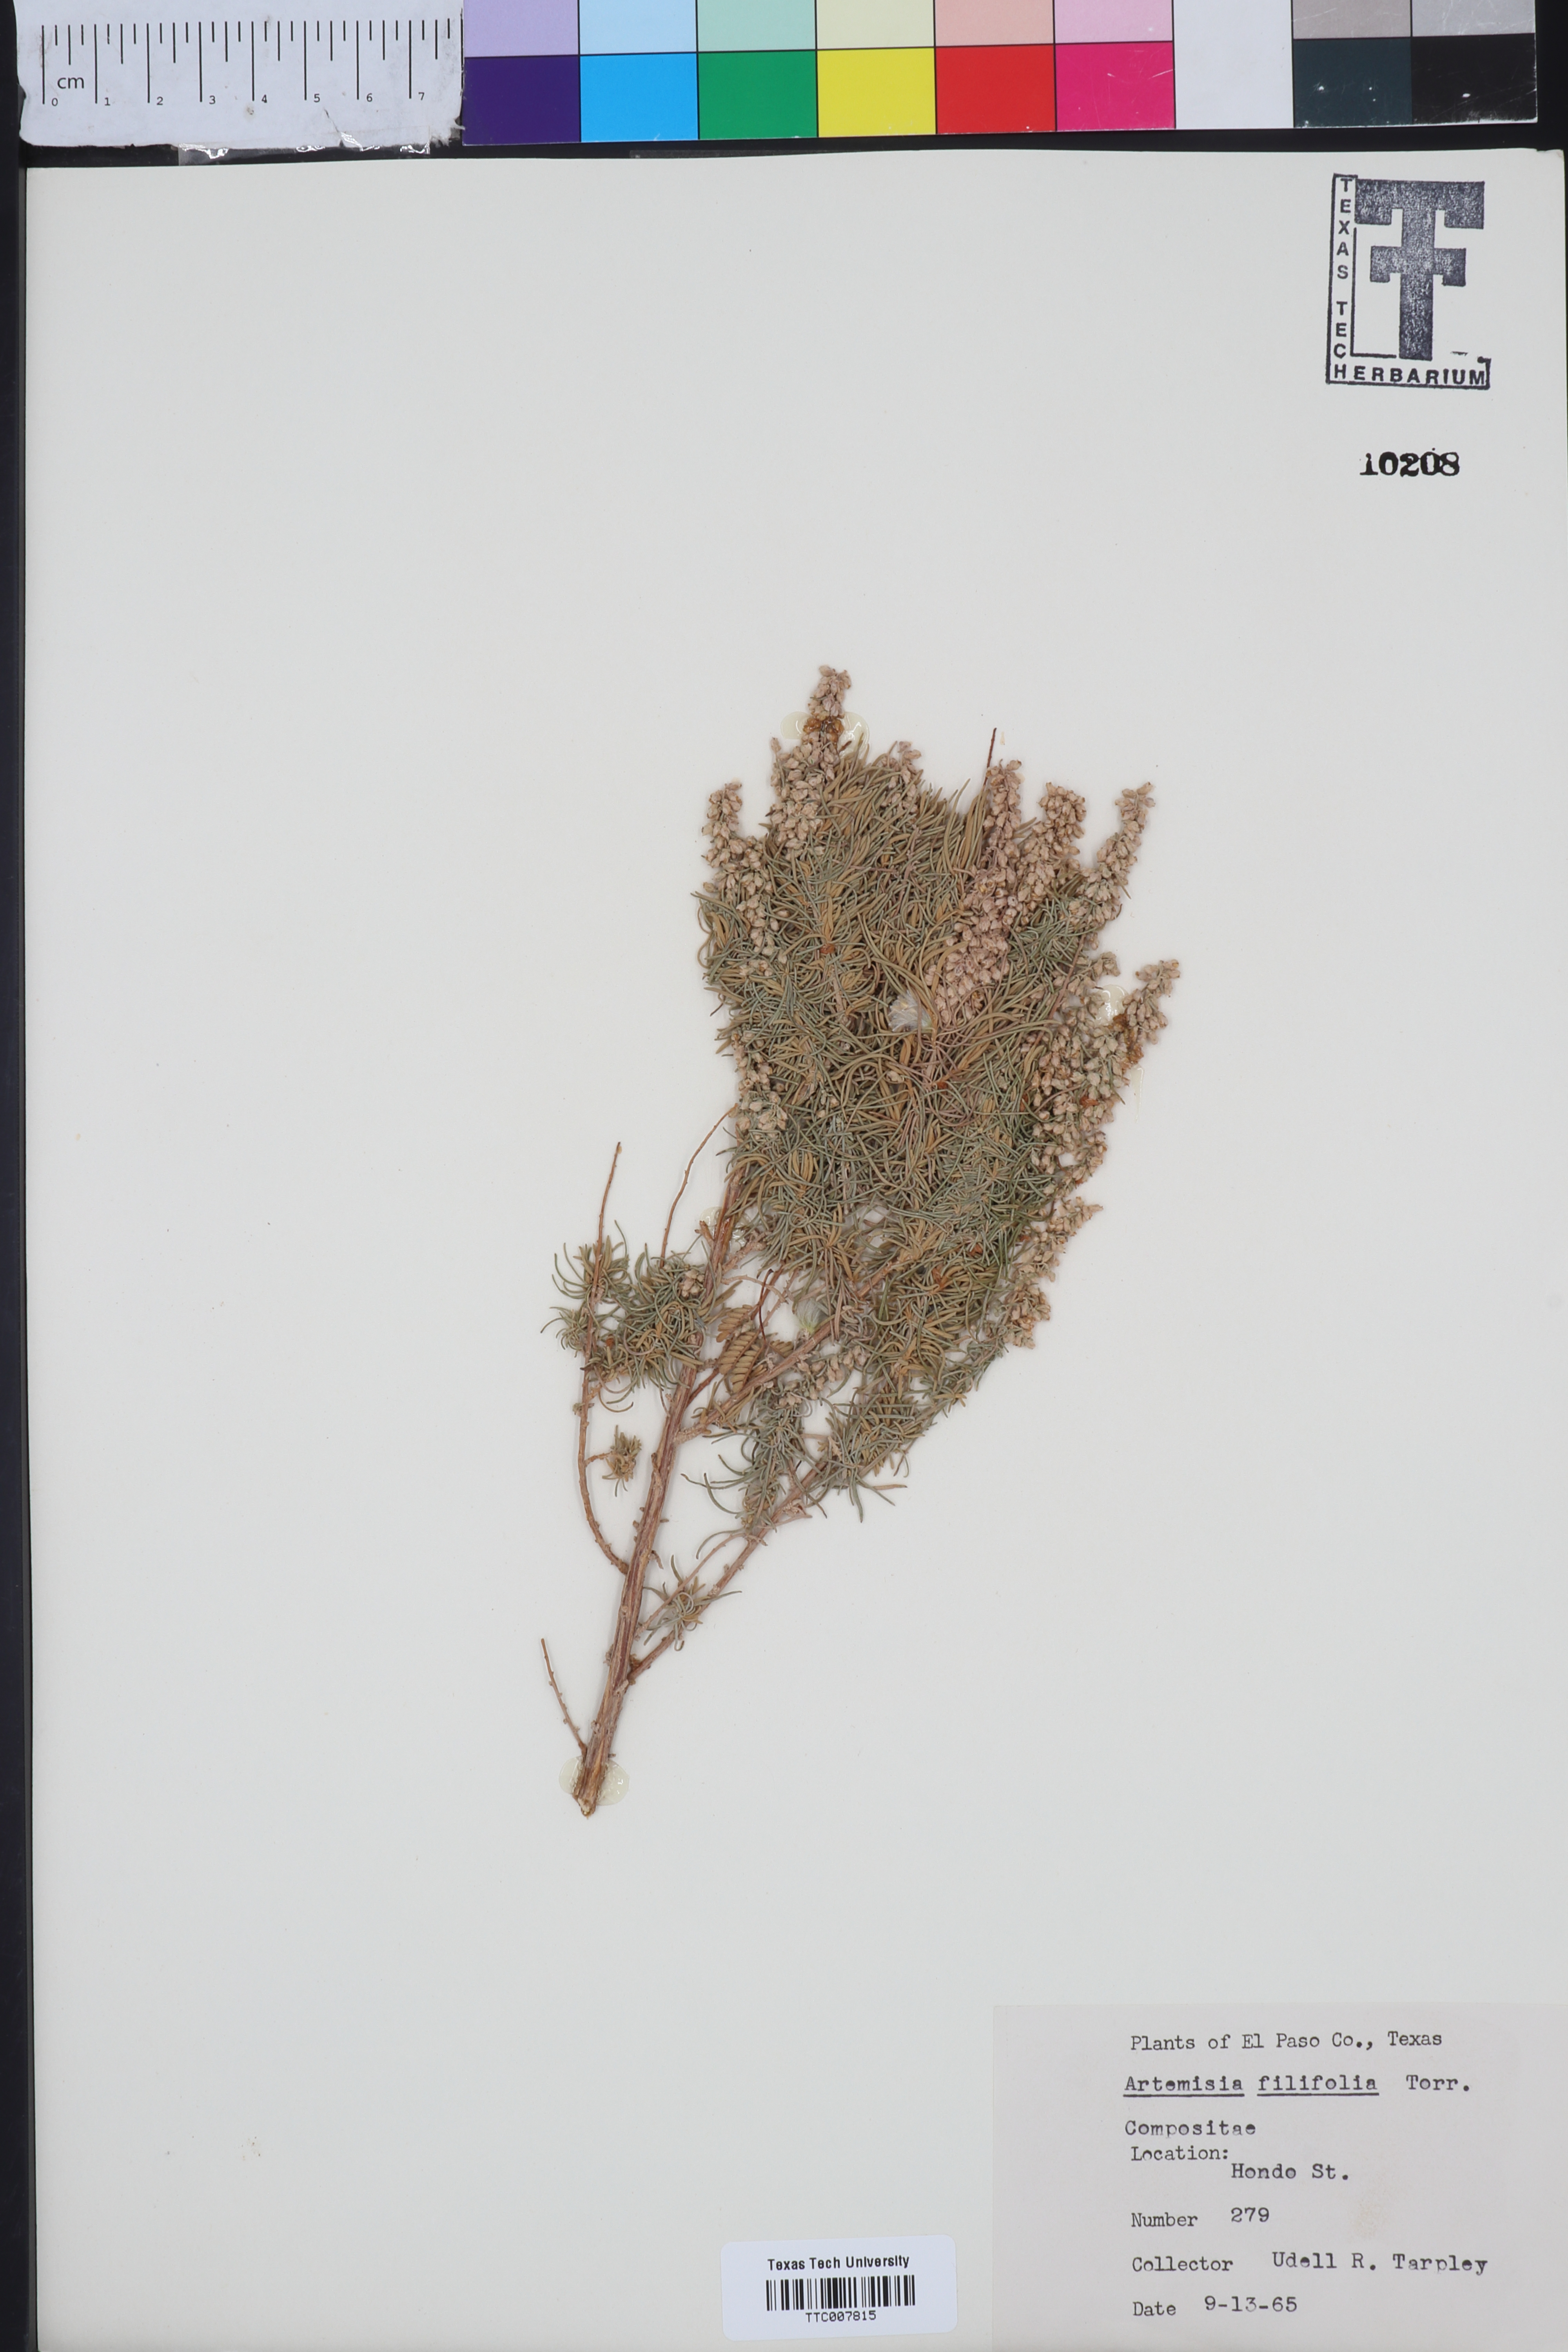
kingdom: Plantae
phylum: Tracheophyta
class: Magnoliopsida
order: Asterales
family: Asteraceae
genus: Artemisia
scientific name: Artemisia filifolia
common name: Sand-sage
